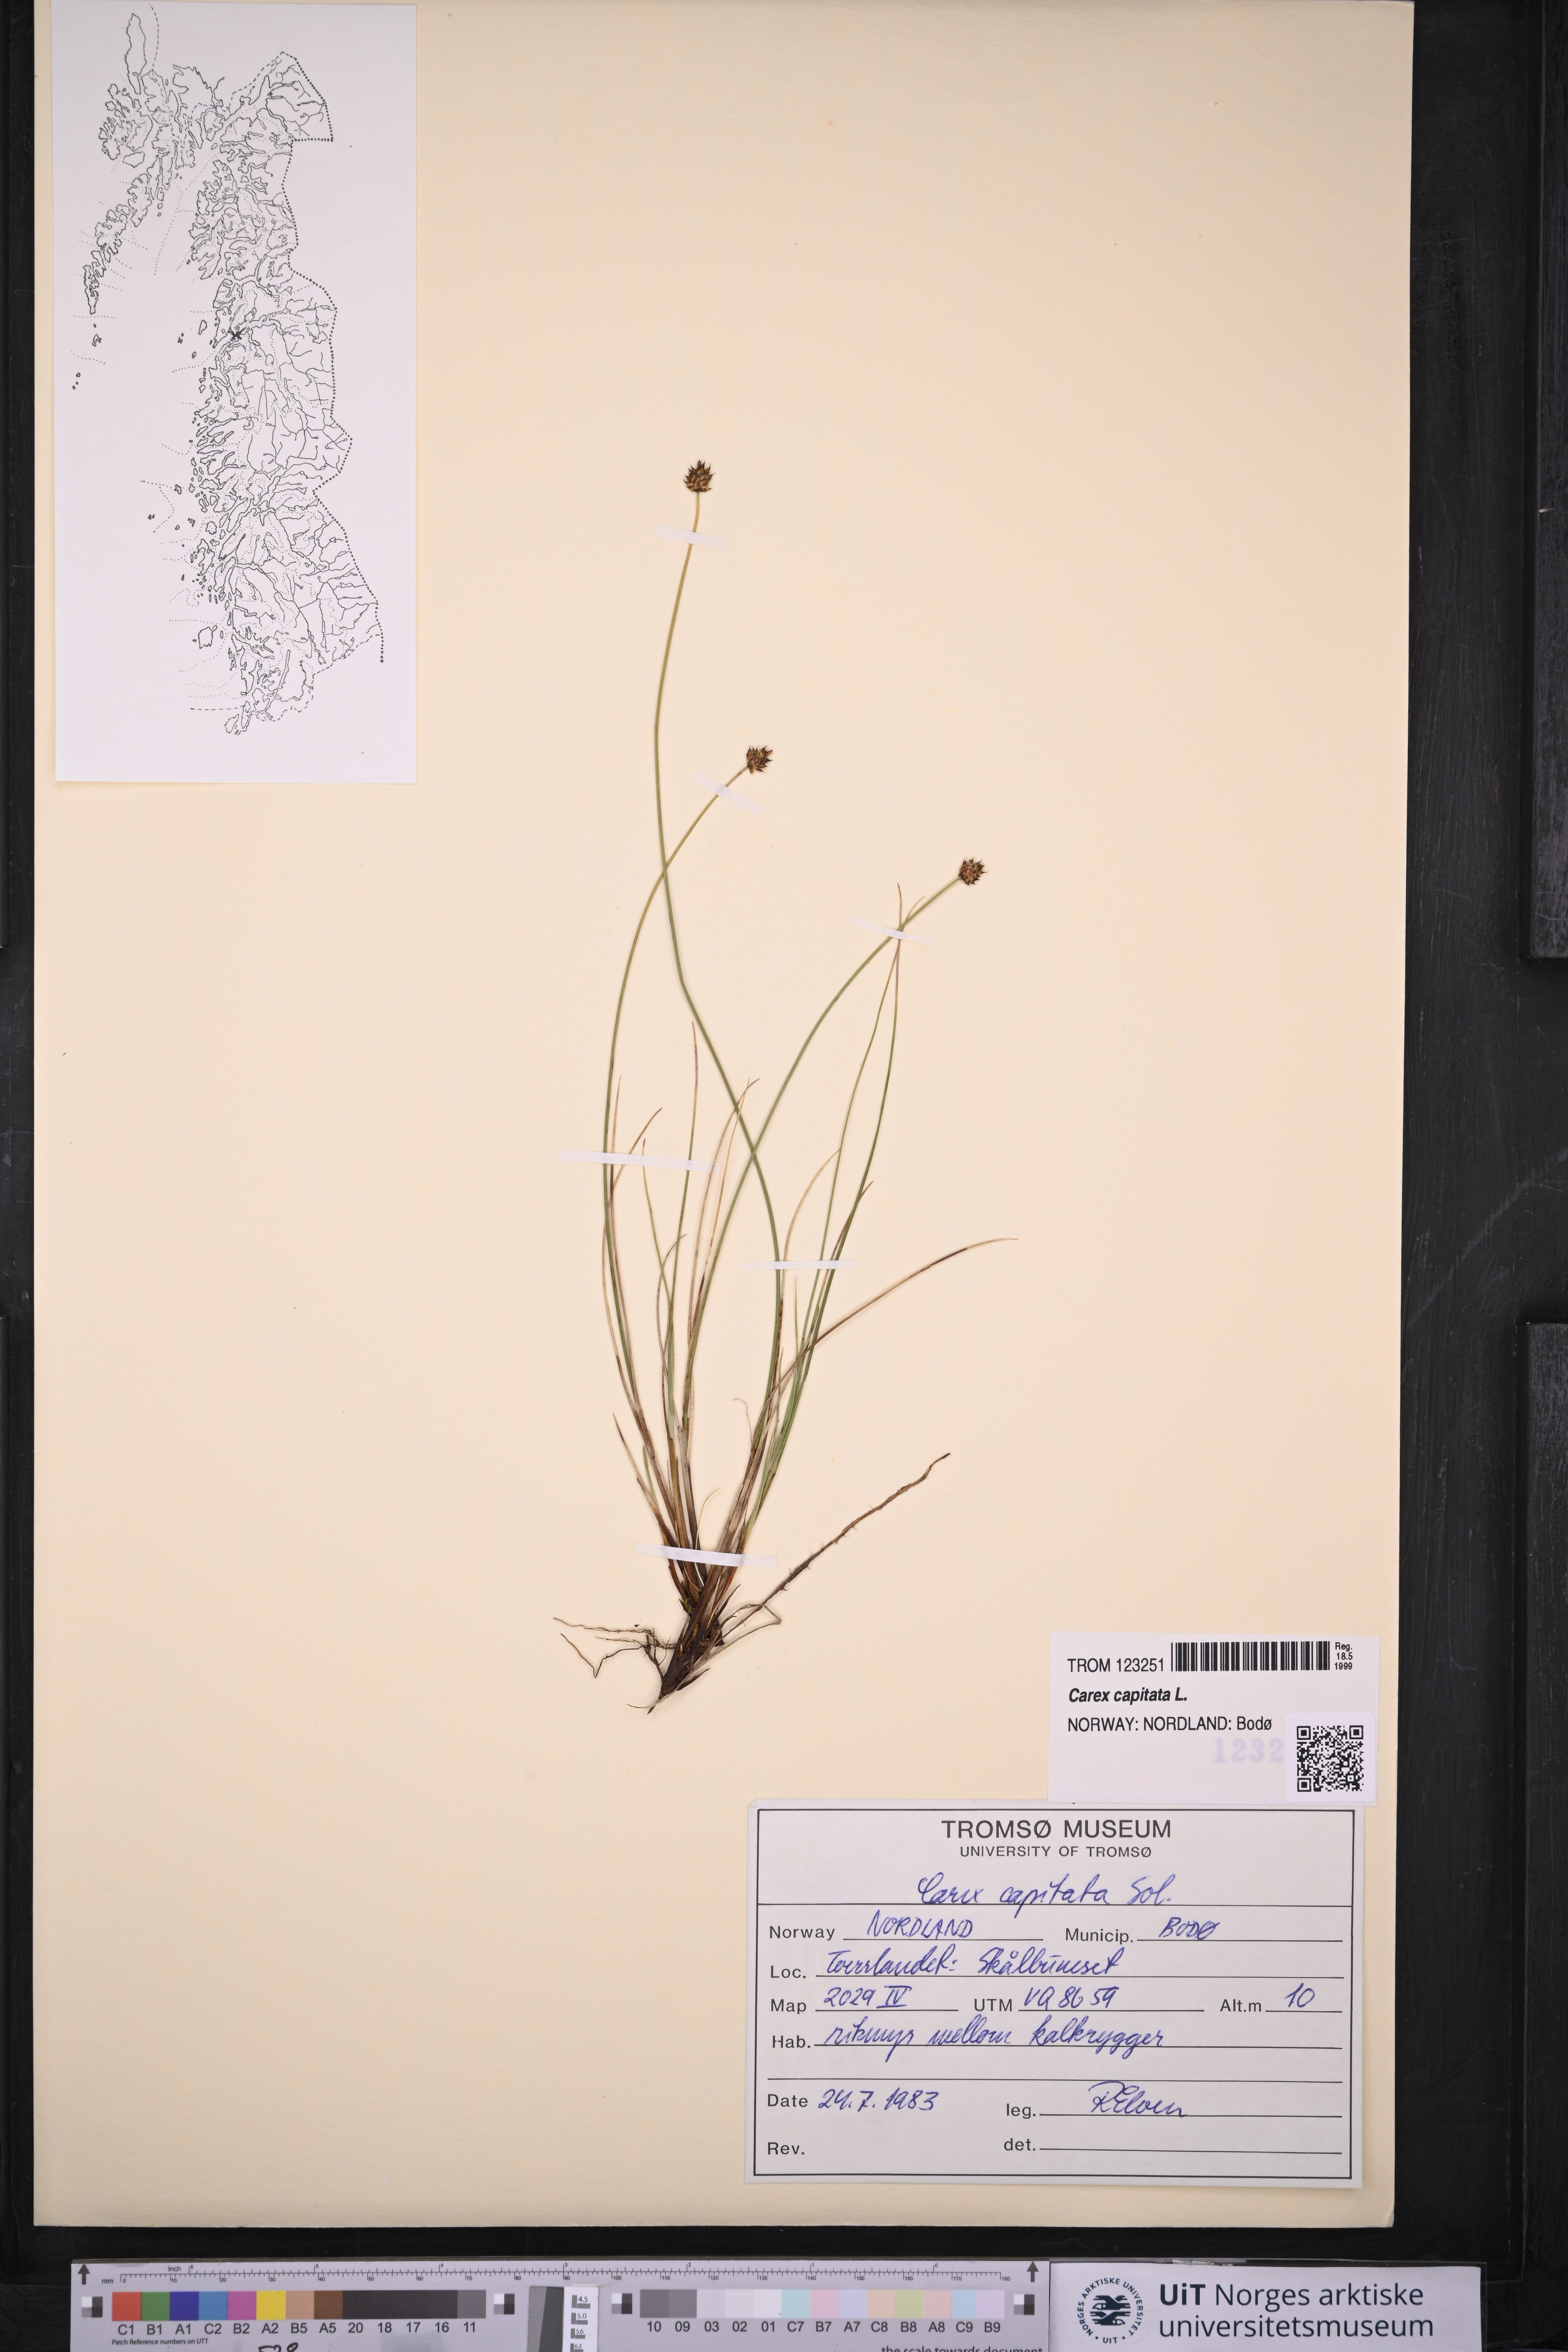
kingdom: Plantae
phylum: Tracheophyta
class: Liliopsida
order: Poales
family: Cyperaceae
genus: Carex
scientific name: Carex capitata
